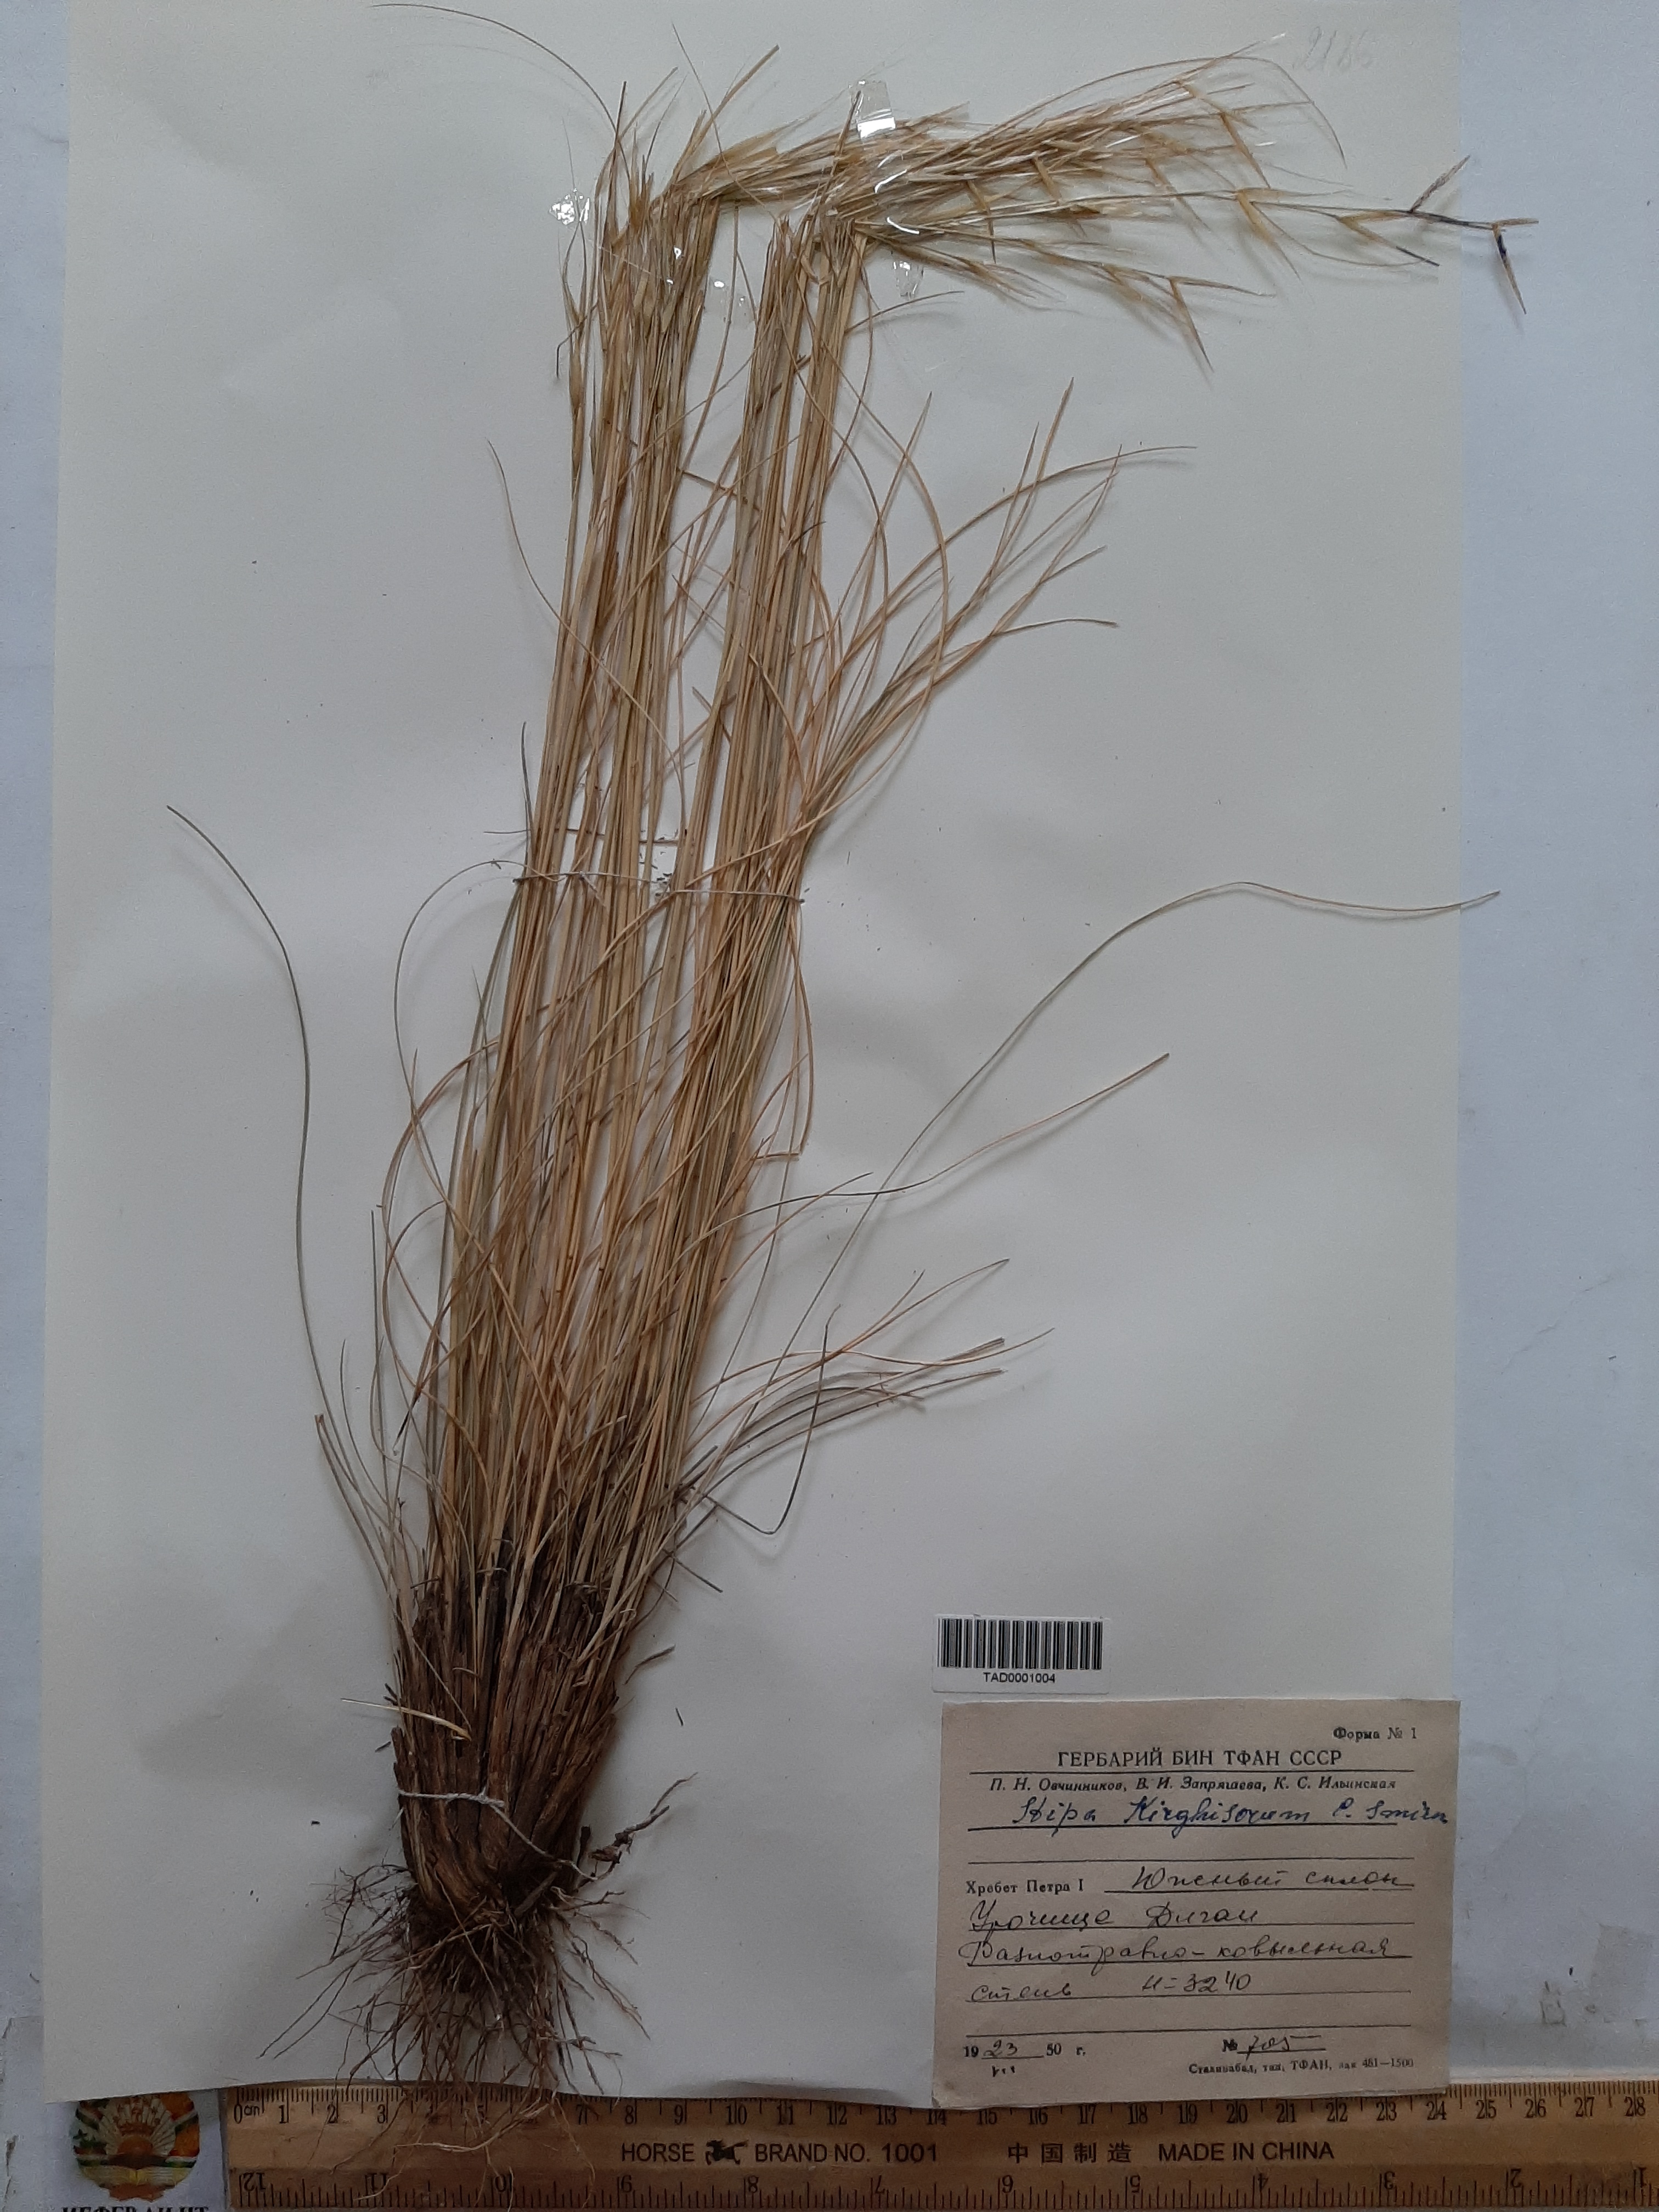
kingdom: Plantae
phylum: Tracheophyta
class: Liliopsida
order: Poales
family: Poaceae
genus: Stipa
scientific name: Stipa kirghisorum
